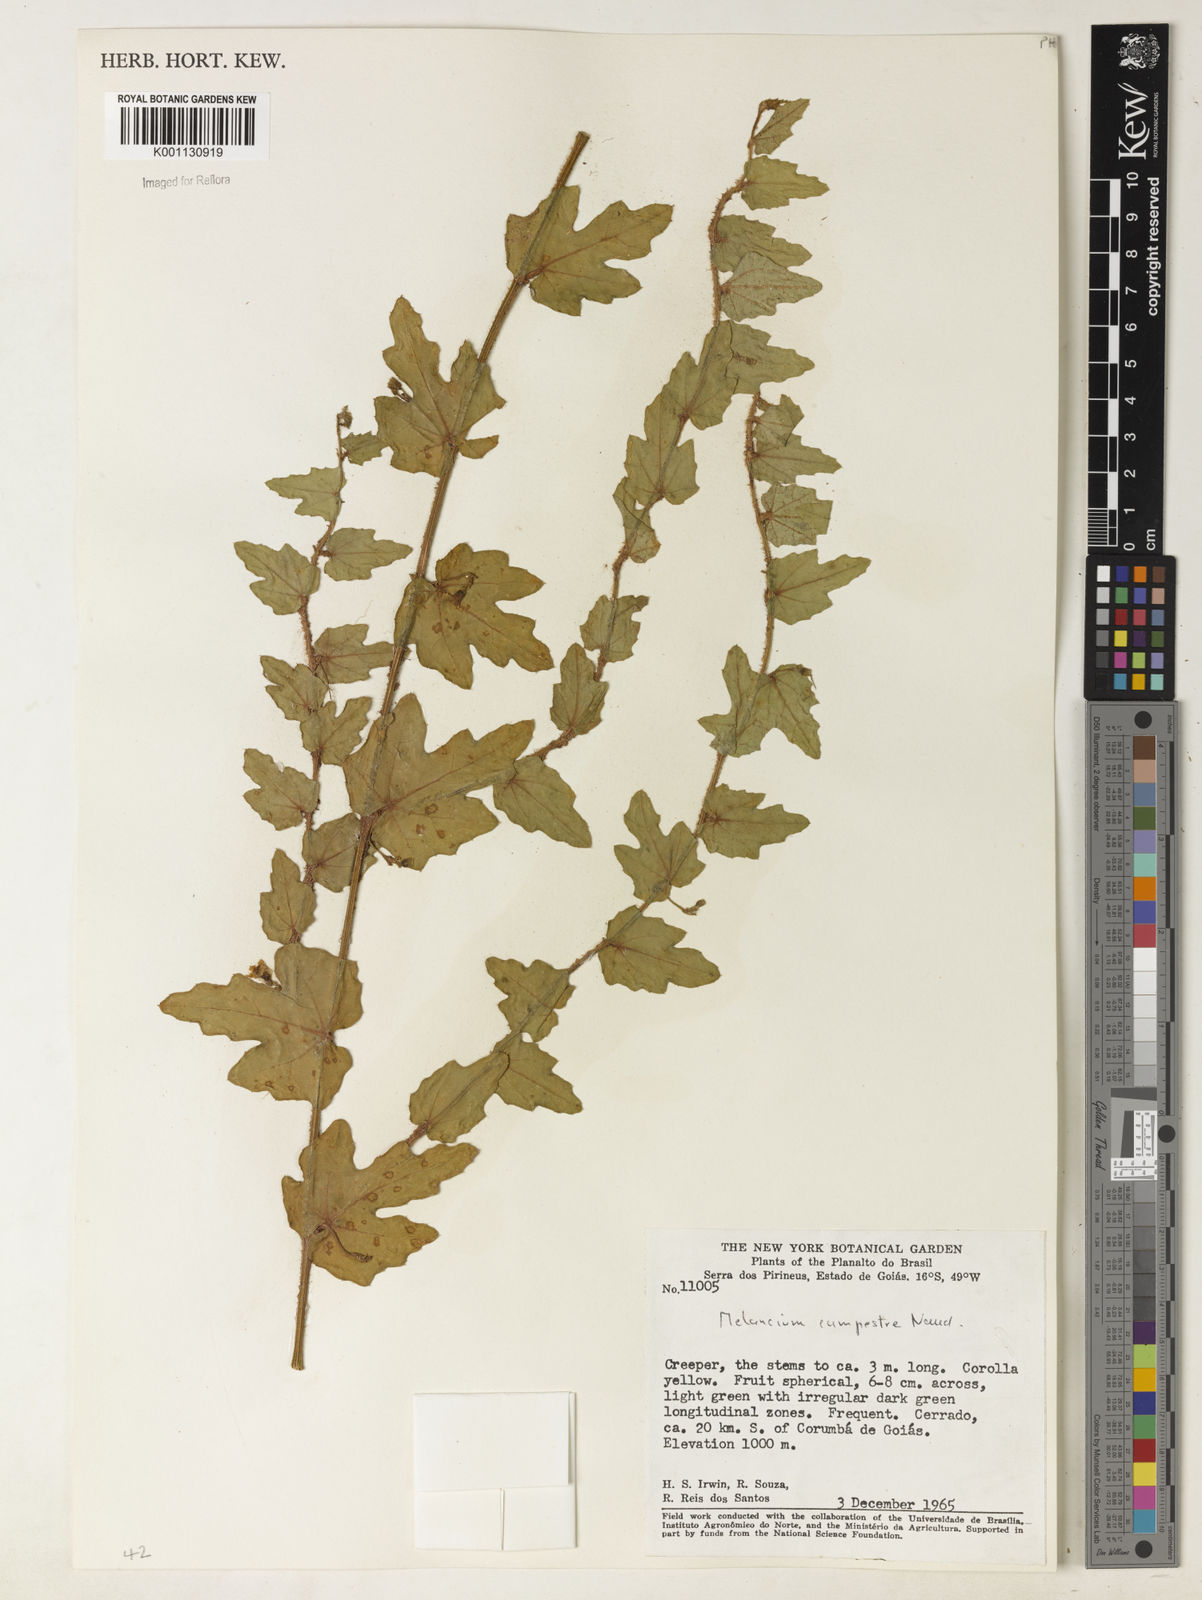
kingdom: Plantae
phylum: Tracheophyta
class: Magnoliopsida
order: Cucurbitales
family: Cucurbitaceae
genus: Melothria
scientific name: Melothria campestris
